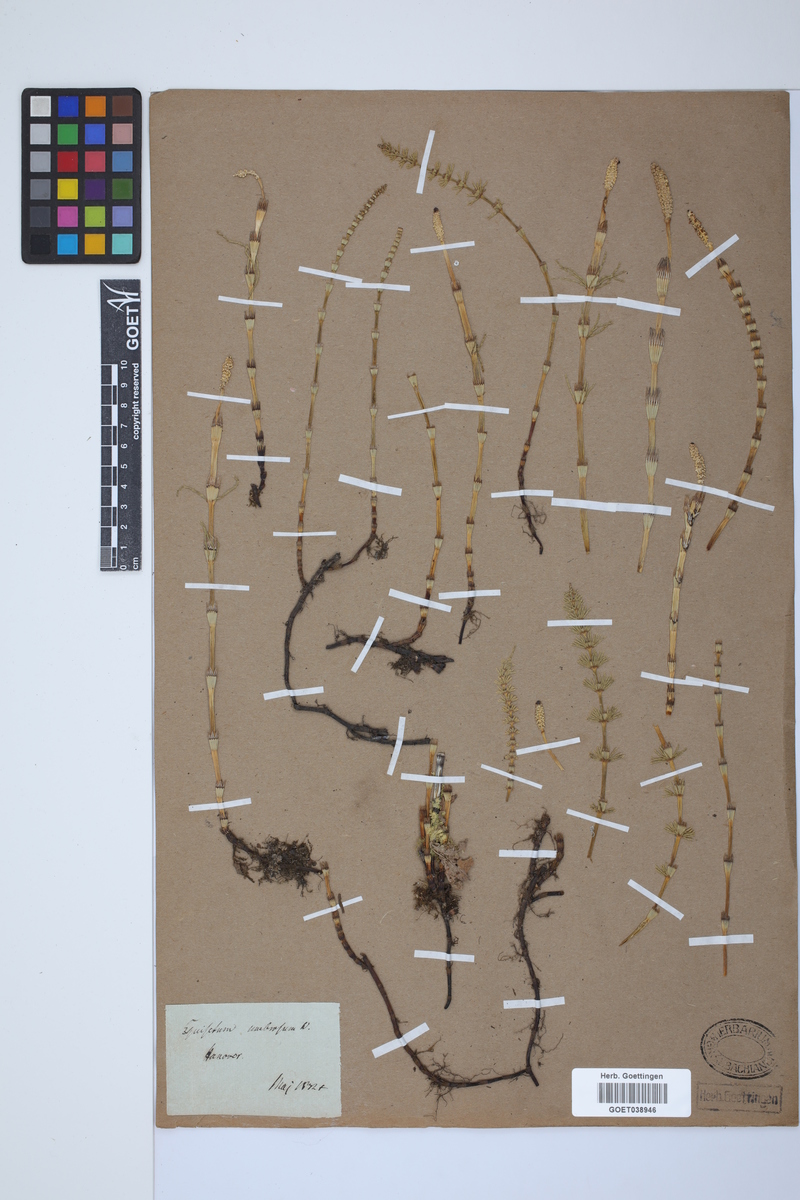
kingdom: Plantae
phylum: Tracheophyta
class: Polypodiopsida
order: Equisetales
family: Equisetaceae
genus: Equisetum
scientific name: Equisetum pratense
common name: Meadow horsetail
